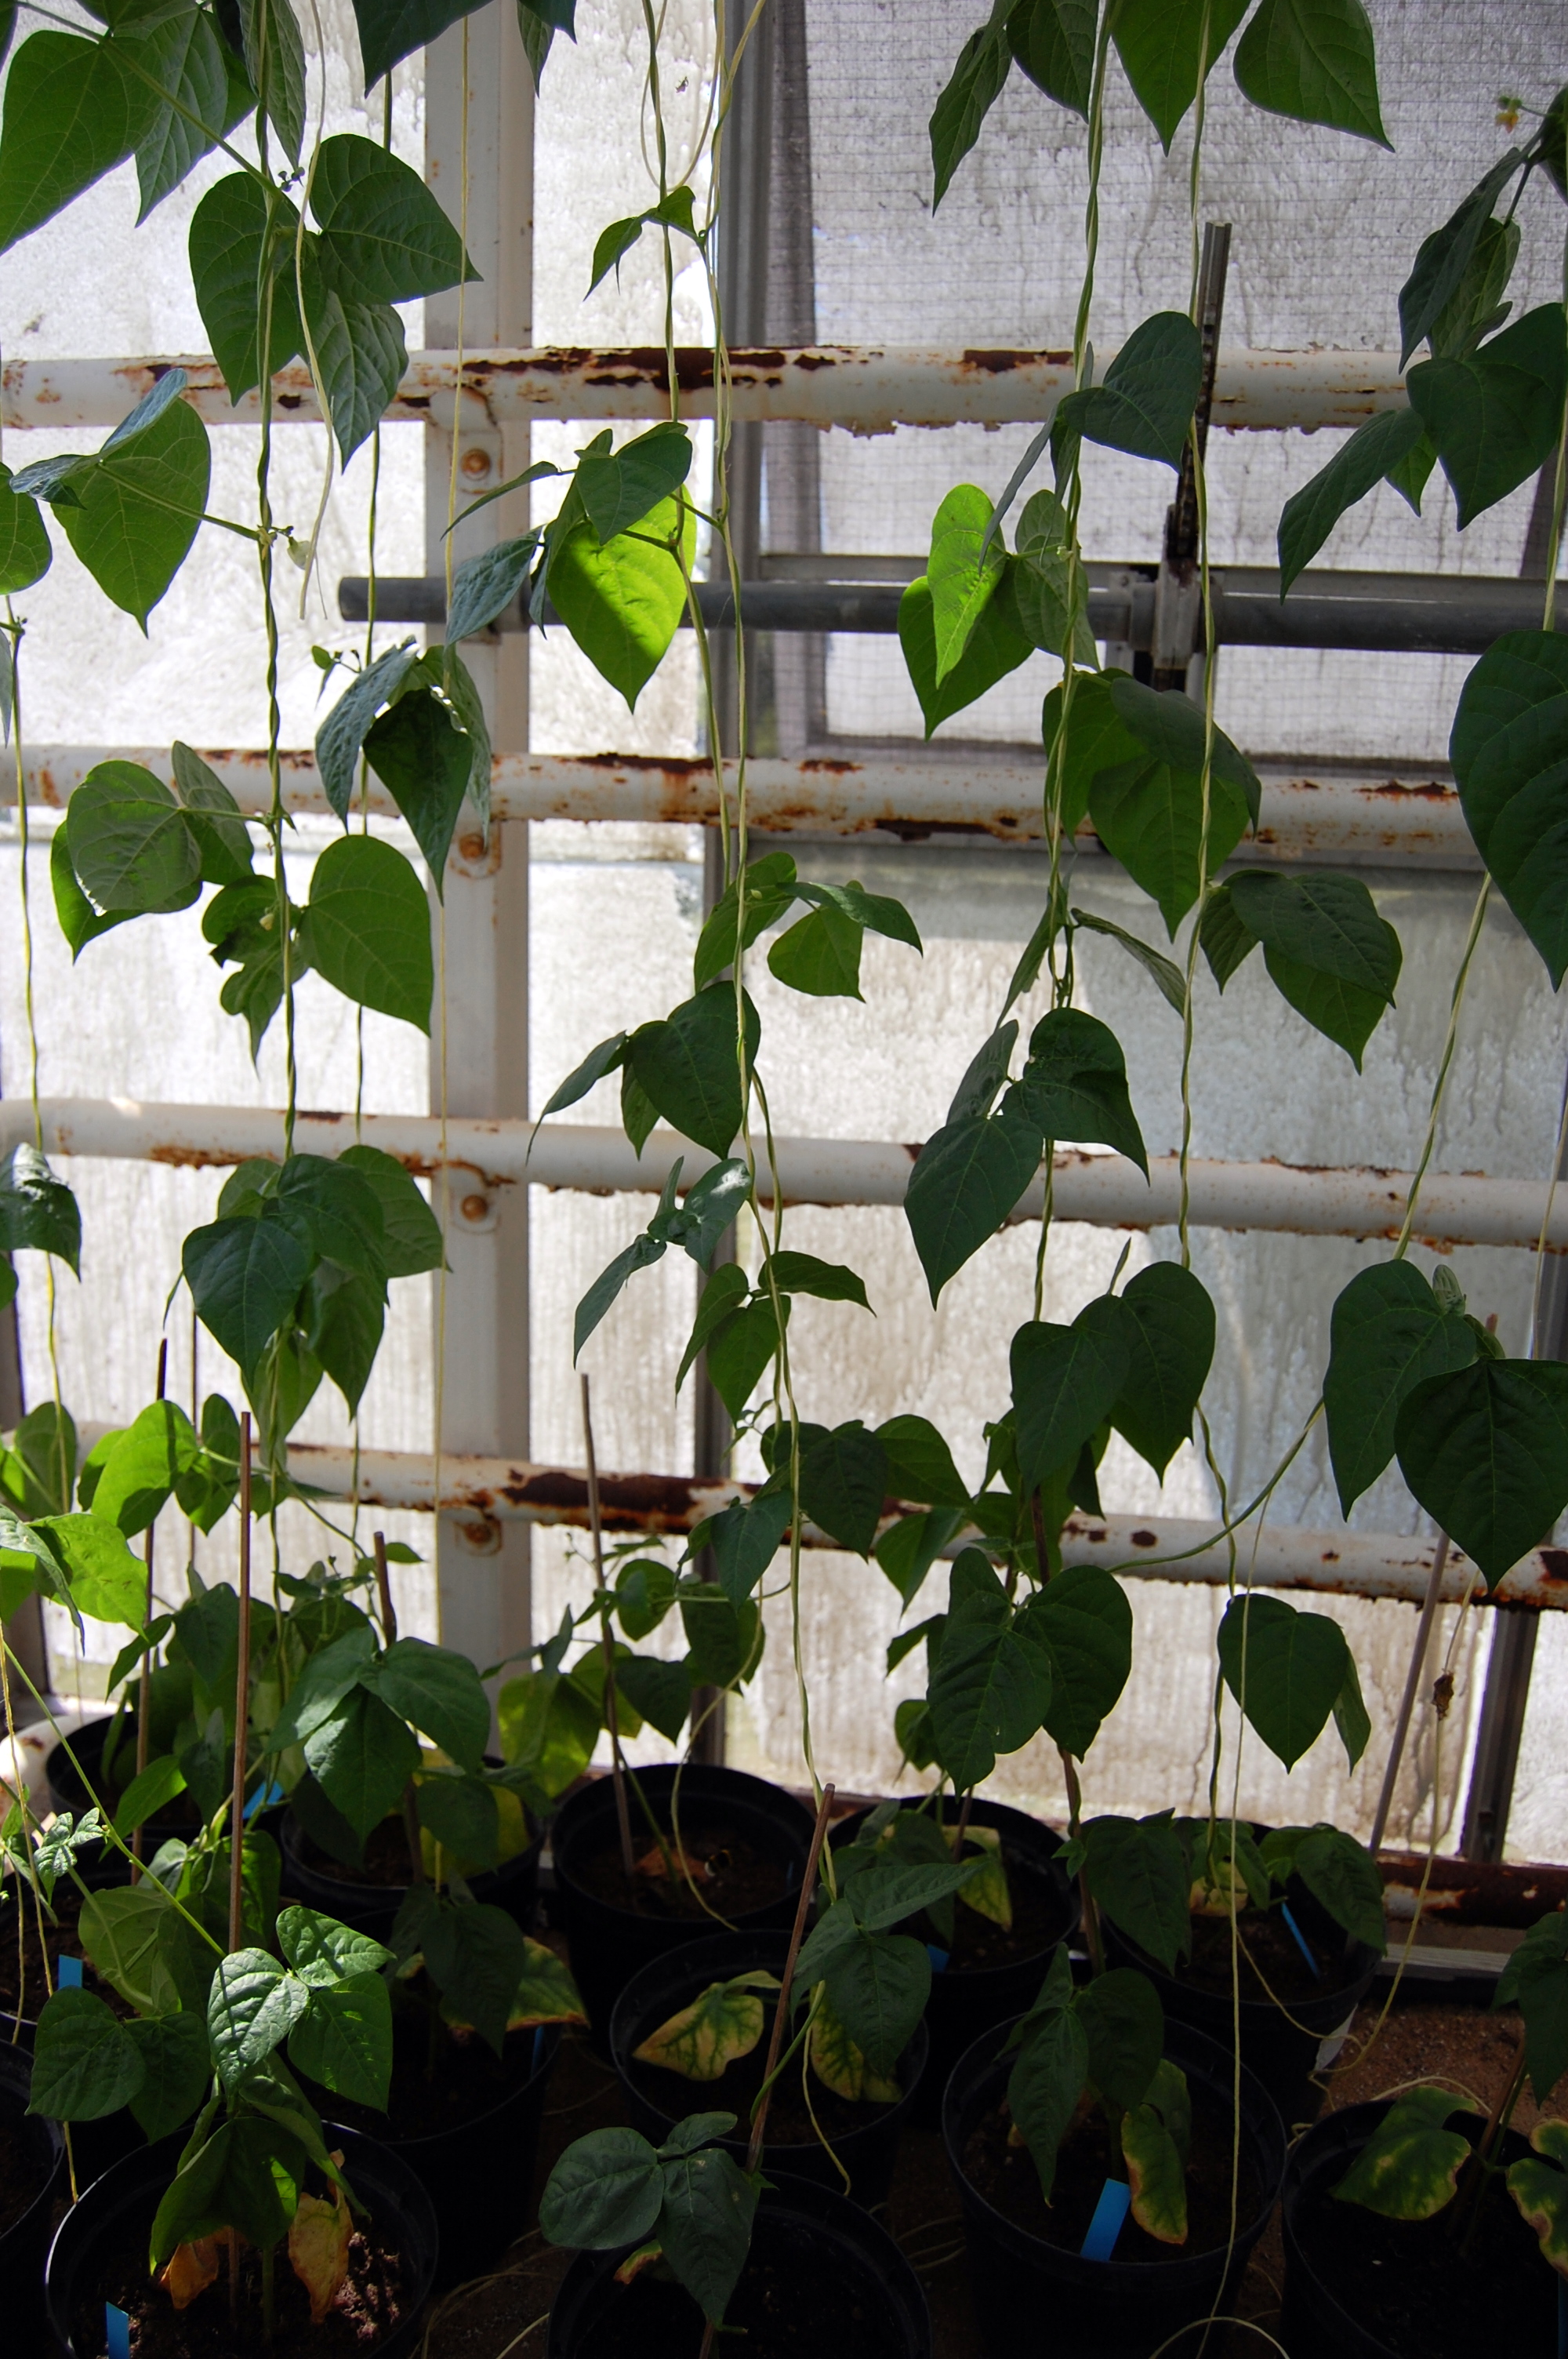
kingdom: Plantae
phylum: Tracheophyta
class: Magnoliopsida
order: Fabales
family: Fabaceae
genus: Phaseolus
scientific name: Phaseolus vulgaris
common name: Bean
